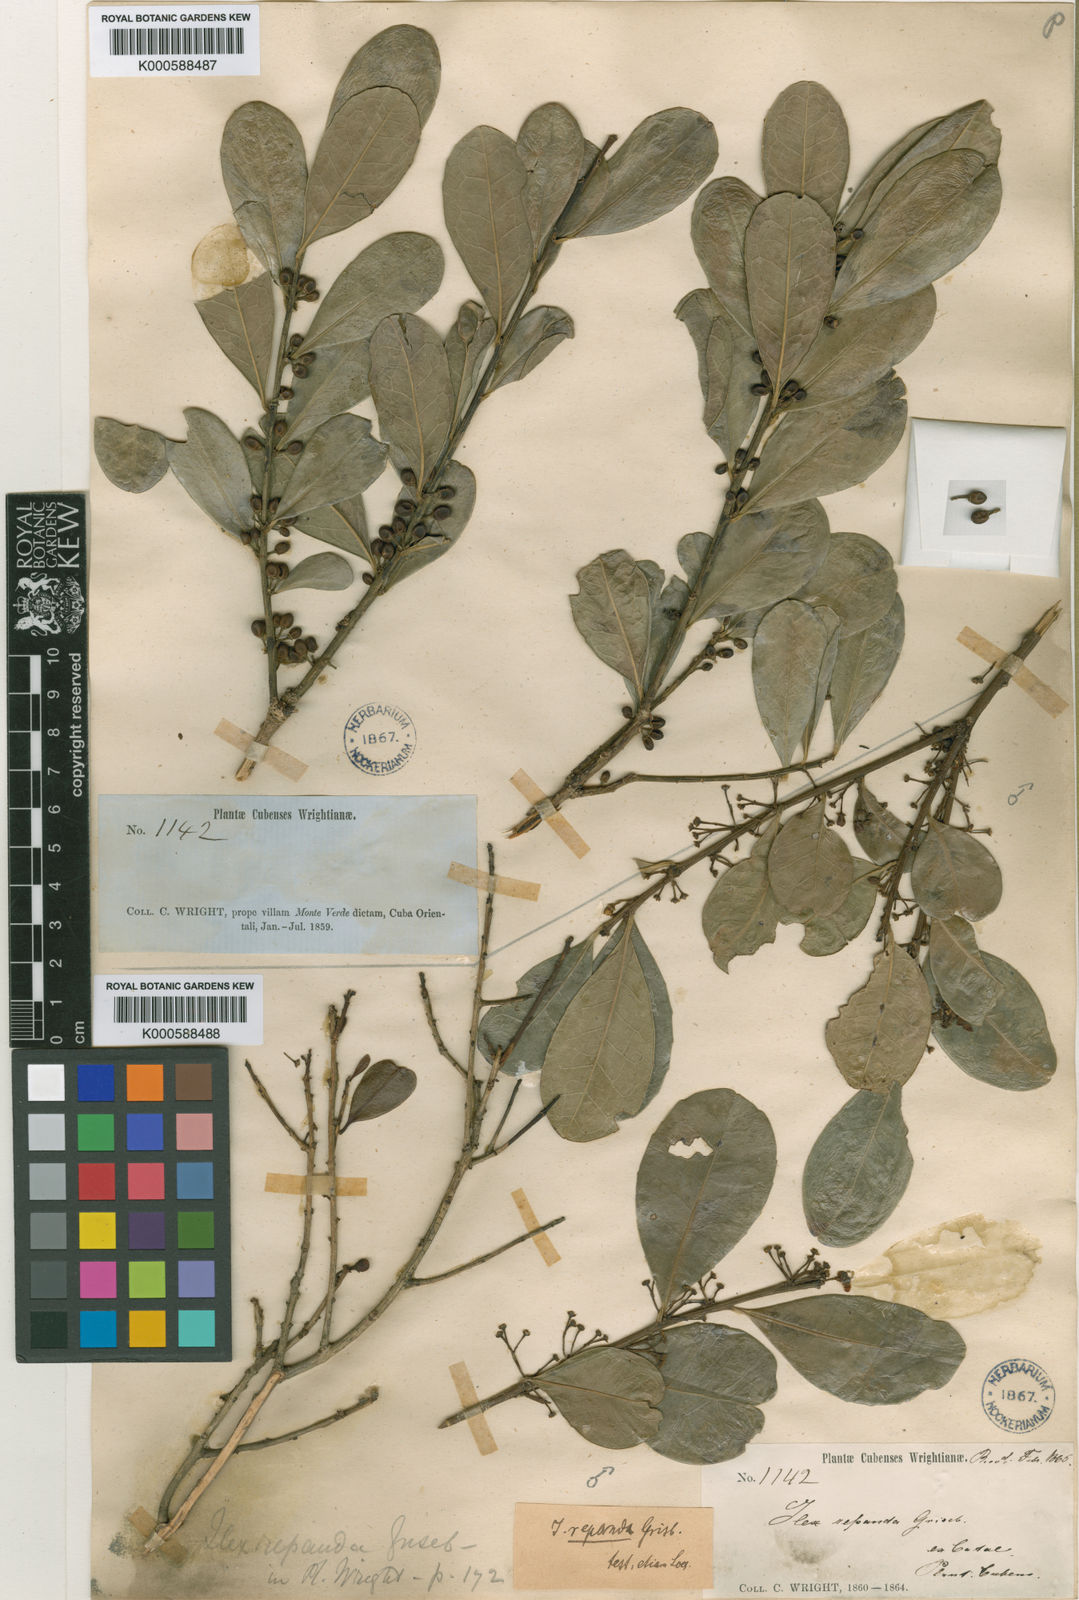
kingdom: Plantae
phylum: Tracheophyta
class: Magnoliopsida
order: Aquifoliales
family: Aquifoliaceae
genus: Ilex
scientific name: Ilex nitida
